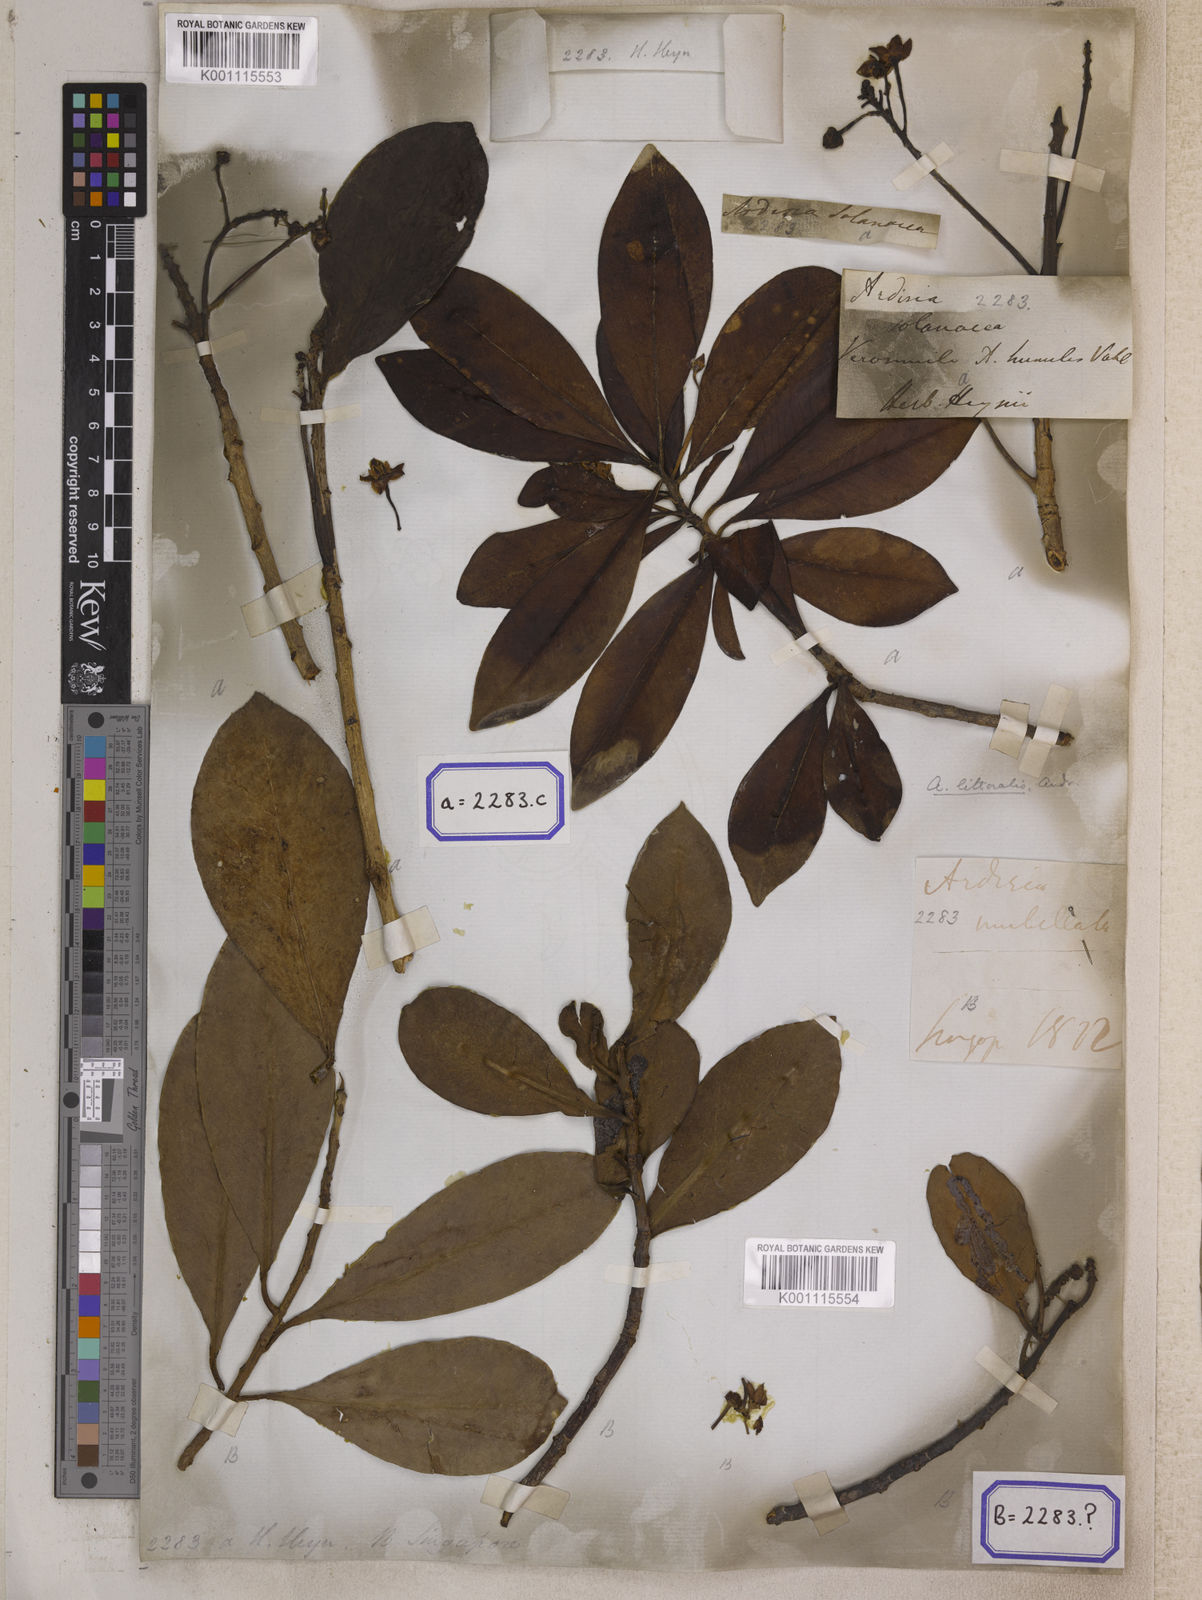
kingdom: Plantae
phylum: Tracheophyta
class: Magnoliopsida
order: Ericales
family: Primulaceae
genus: Ardisia
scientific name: Ardisia humilis
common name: Low shoebutton
